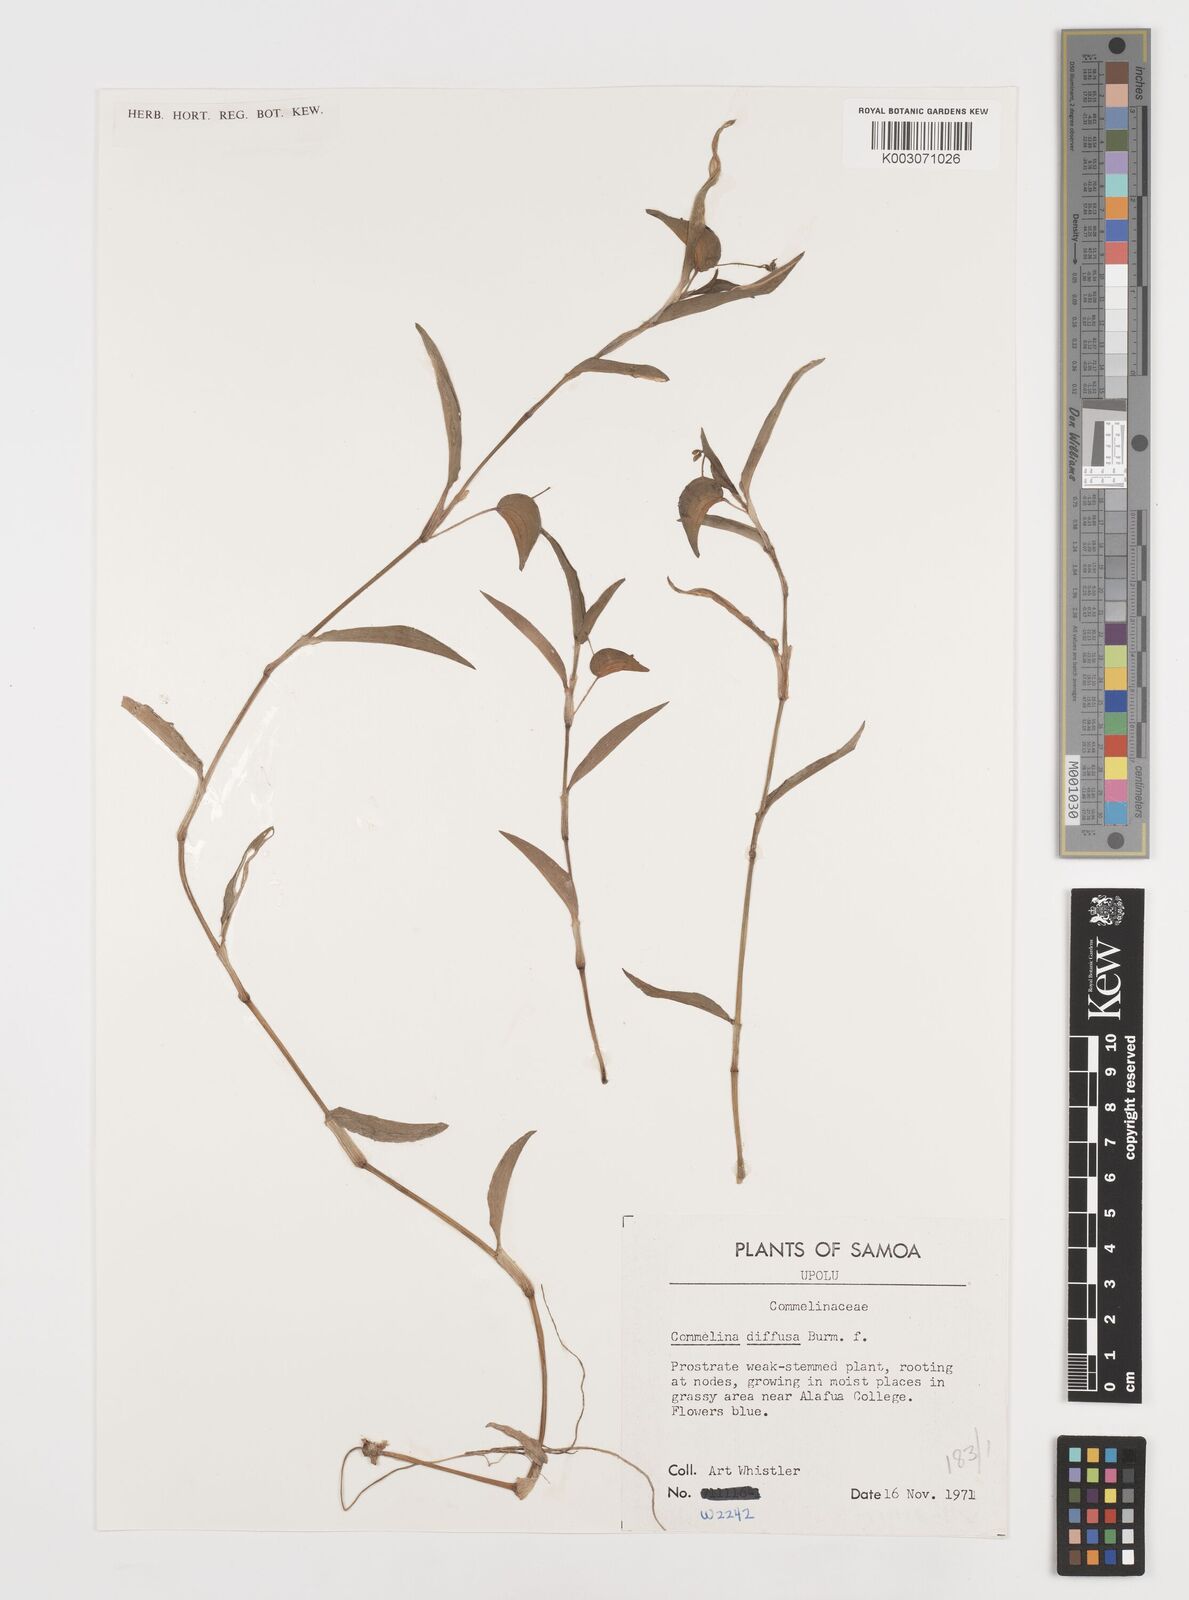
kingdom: Plantae
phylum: Tracheophyta
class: Liliopsida
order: Commelinales
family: Commelinaceae
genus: Commelina
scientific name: Commelina diffusa
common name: Climbing dayflower
